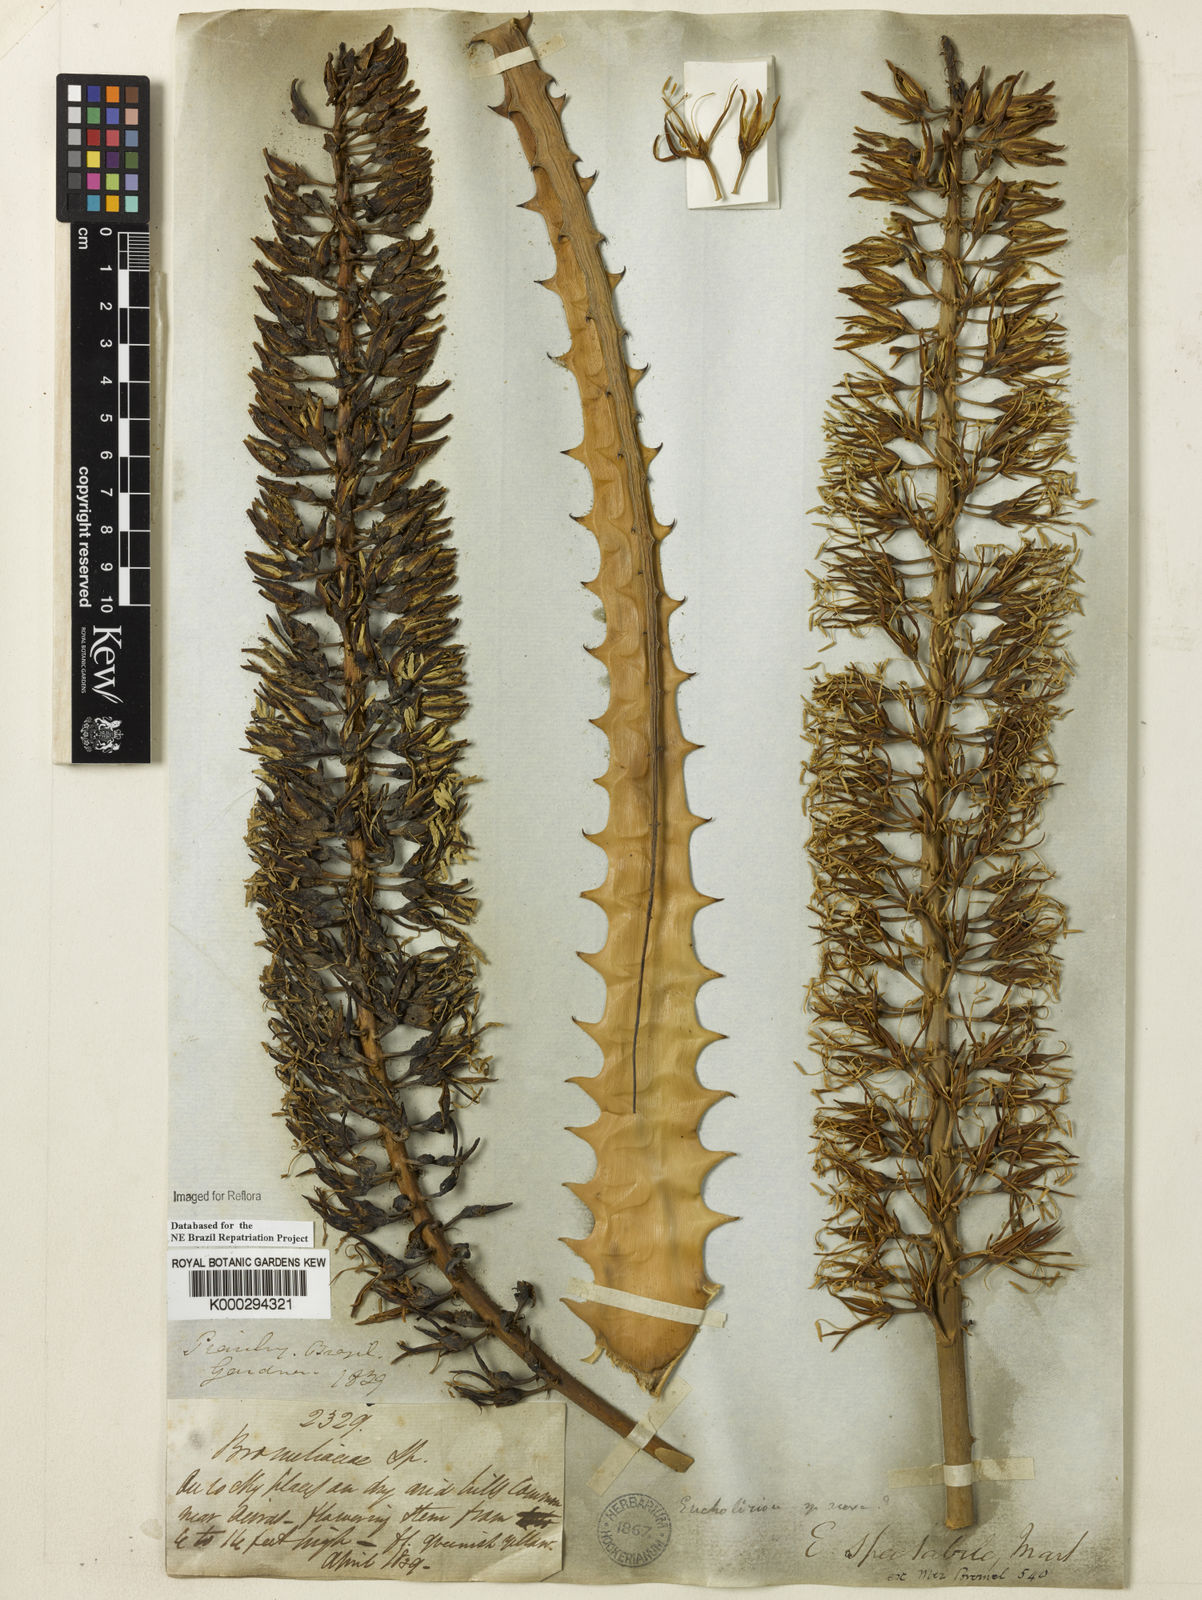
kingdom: Plantae
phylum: Tracheophyta
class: Magnoliopsida
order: Rosales
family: Cannabaceae
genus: Celtis
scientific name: Celtis iguanaea
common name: Iguana hackberry
